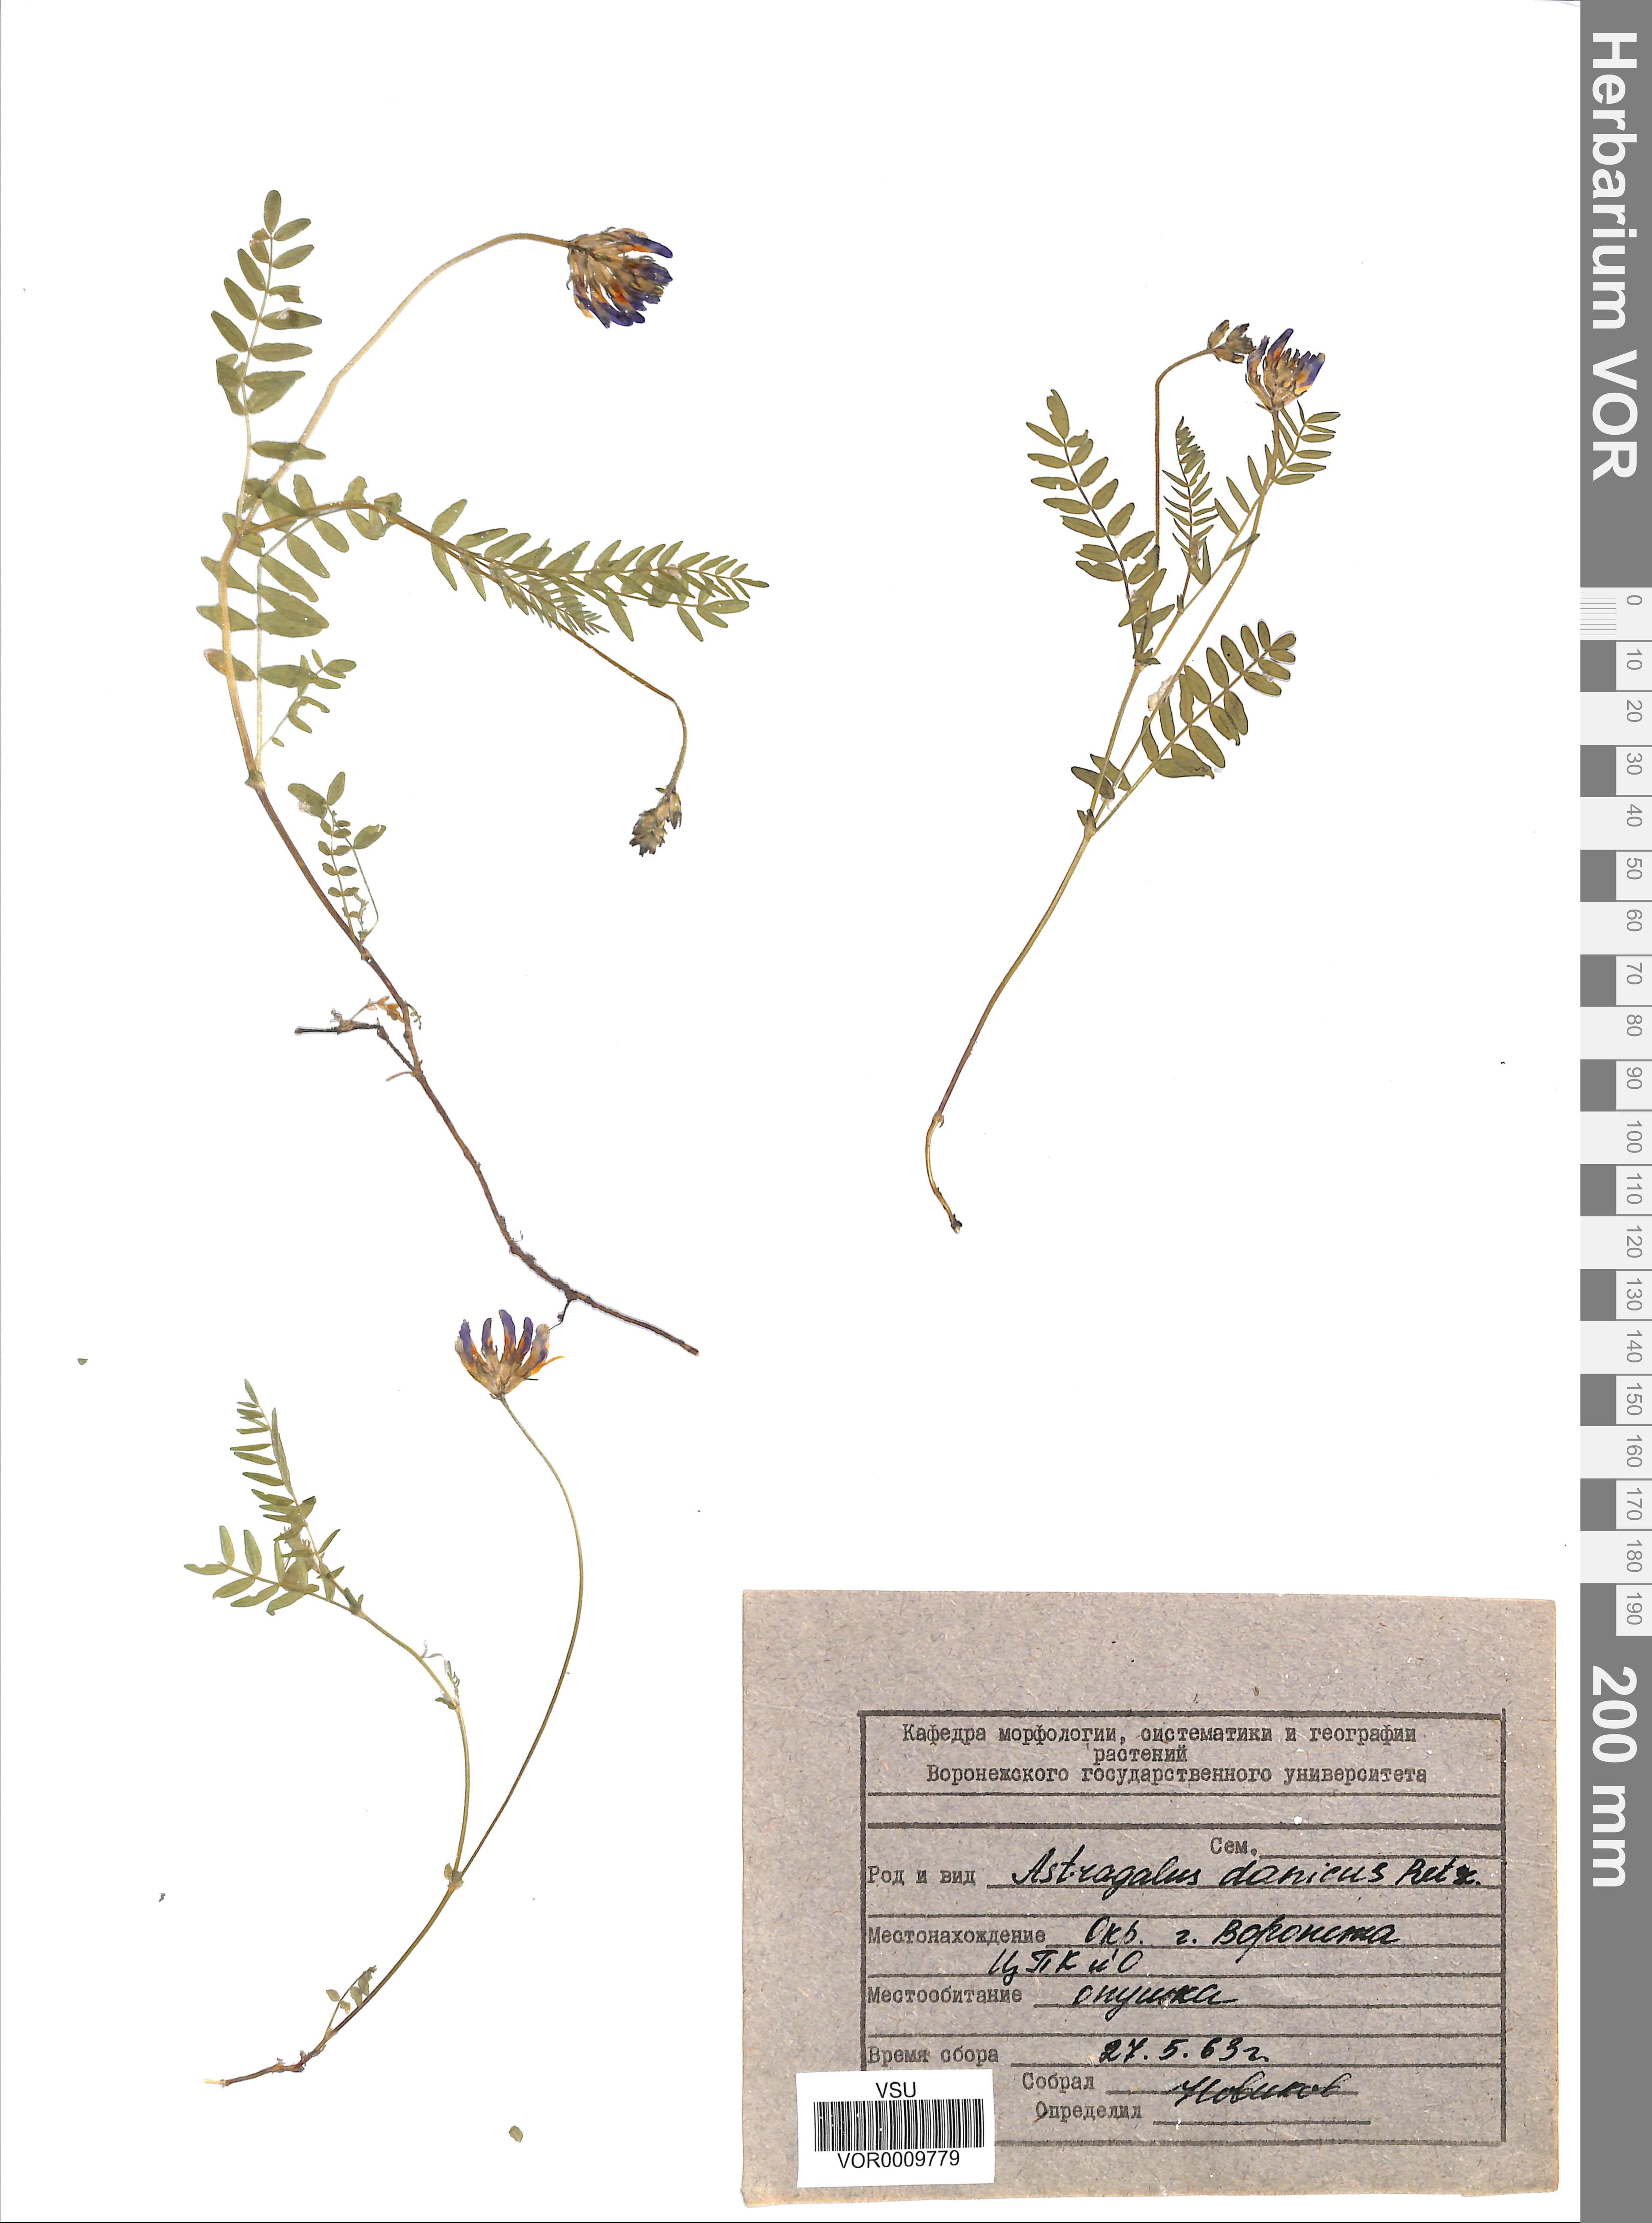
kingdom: Plantae
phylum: Tracheophyta
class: Magnoliopsida
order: Fabales
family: Fabaceae
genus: Astragalus
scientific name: Astragalus danicus
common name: Purple milk-vetch
